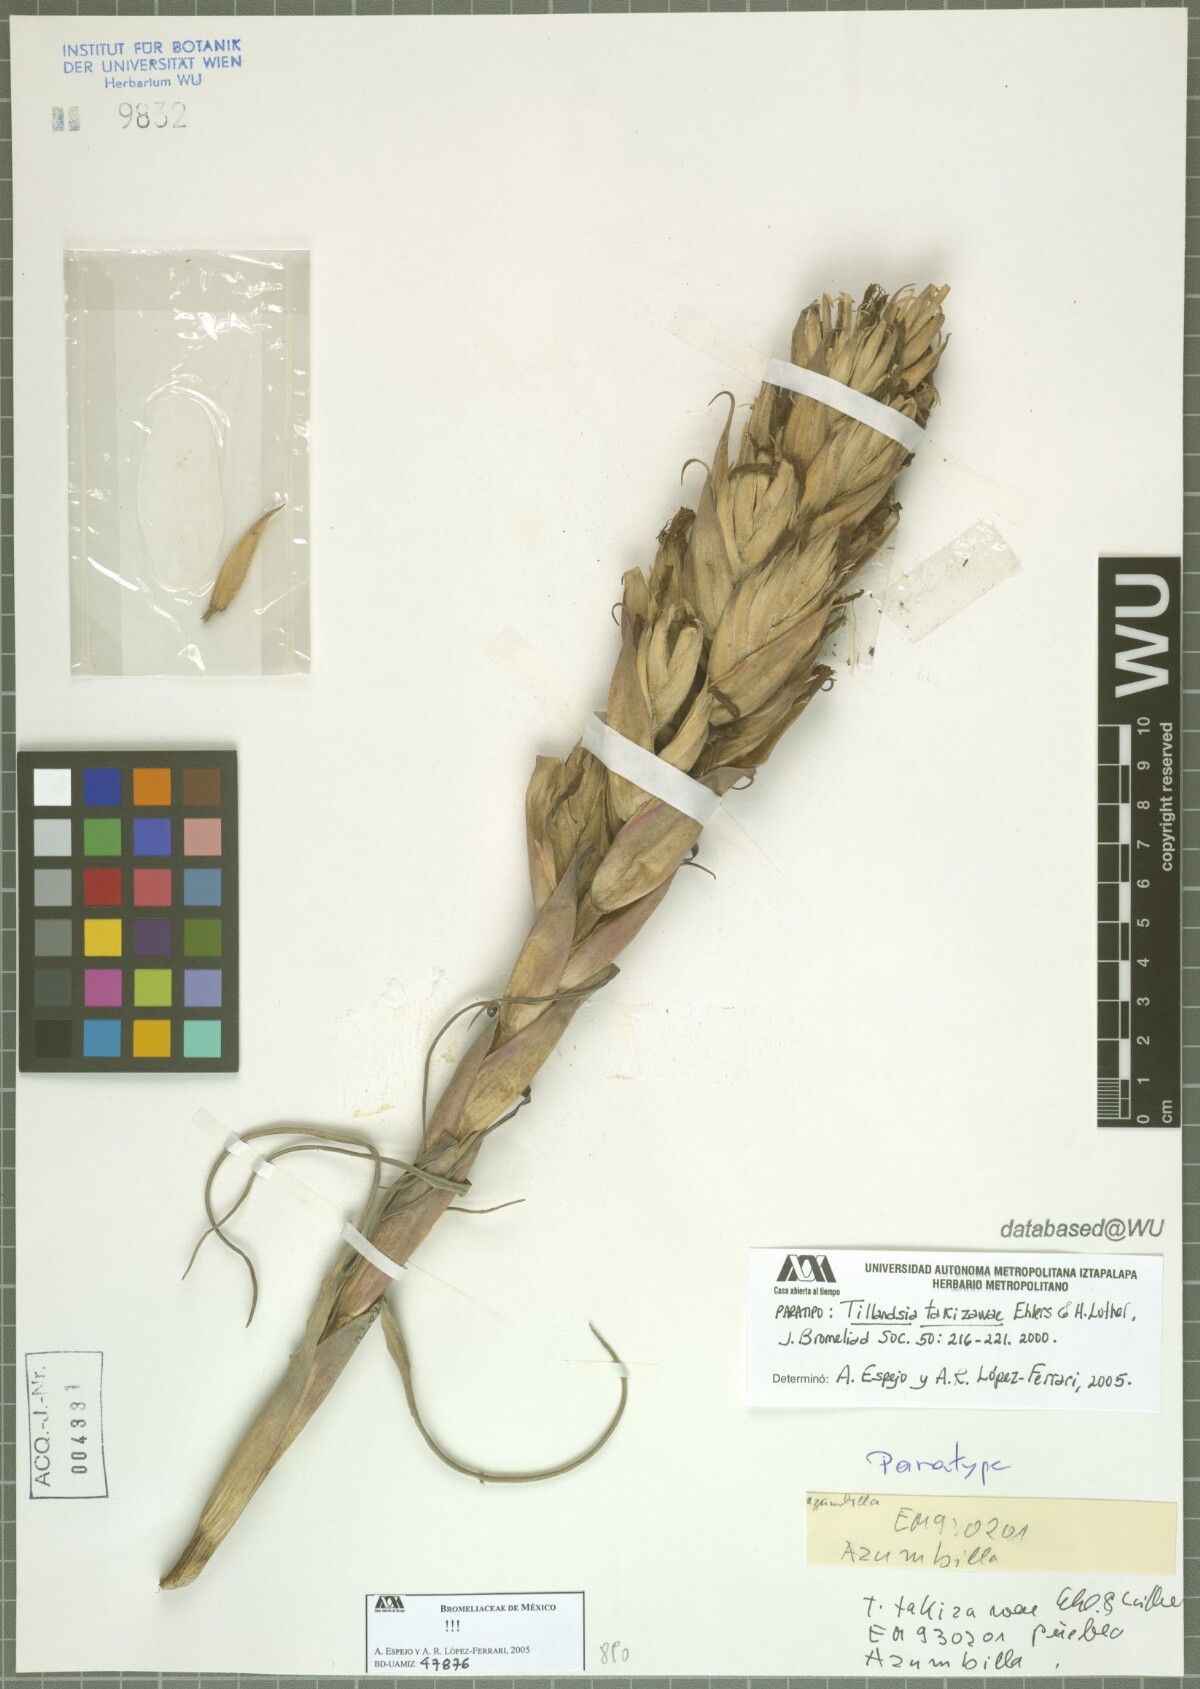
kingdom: Plantae
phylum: Tracheophyta
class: Liliopsida
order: Poales
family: Bromeliaceae
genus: Tillandsia
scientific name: Tillandsia takizawae
